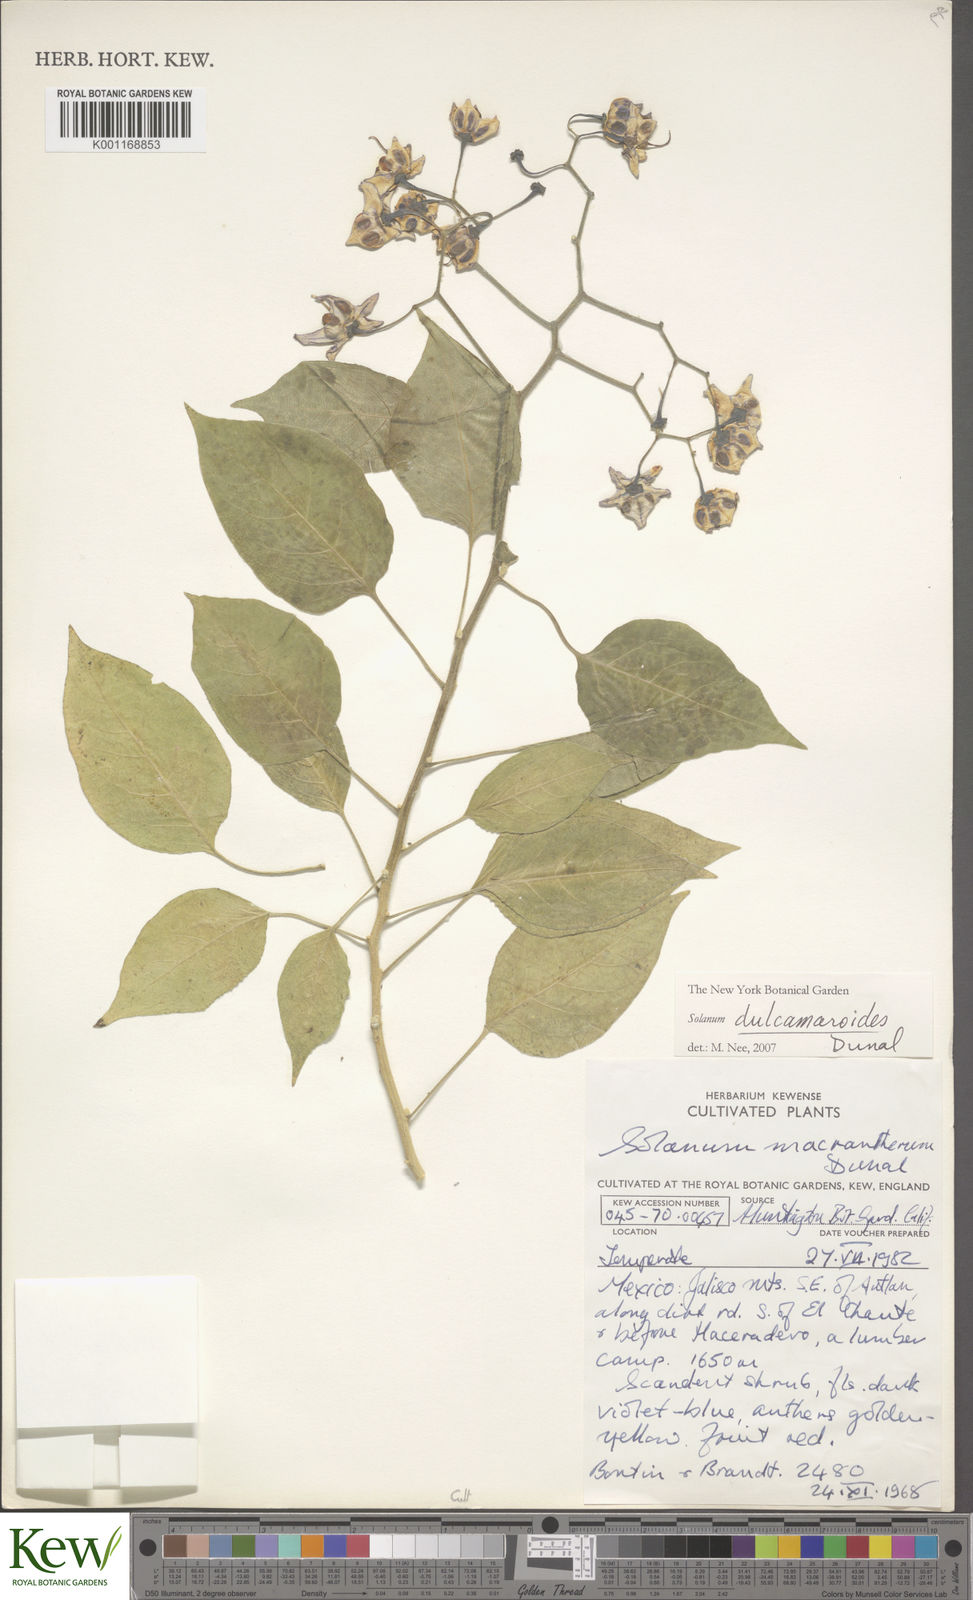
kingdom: Plantae
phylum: Tracheophyta
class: Magnoliopsida
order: Solanales
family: Solanaceae
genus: Solanum
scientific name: Solanum dulcamara
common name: Climbing nightshade
